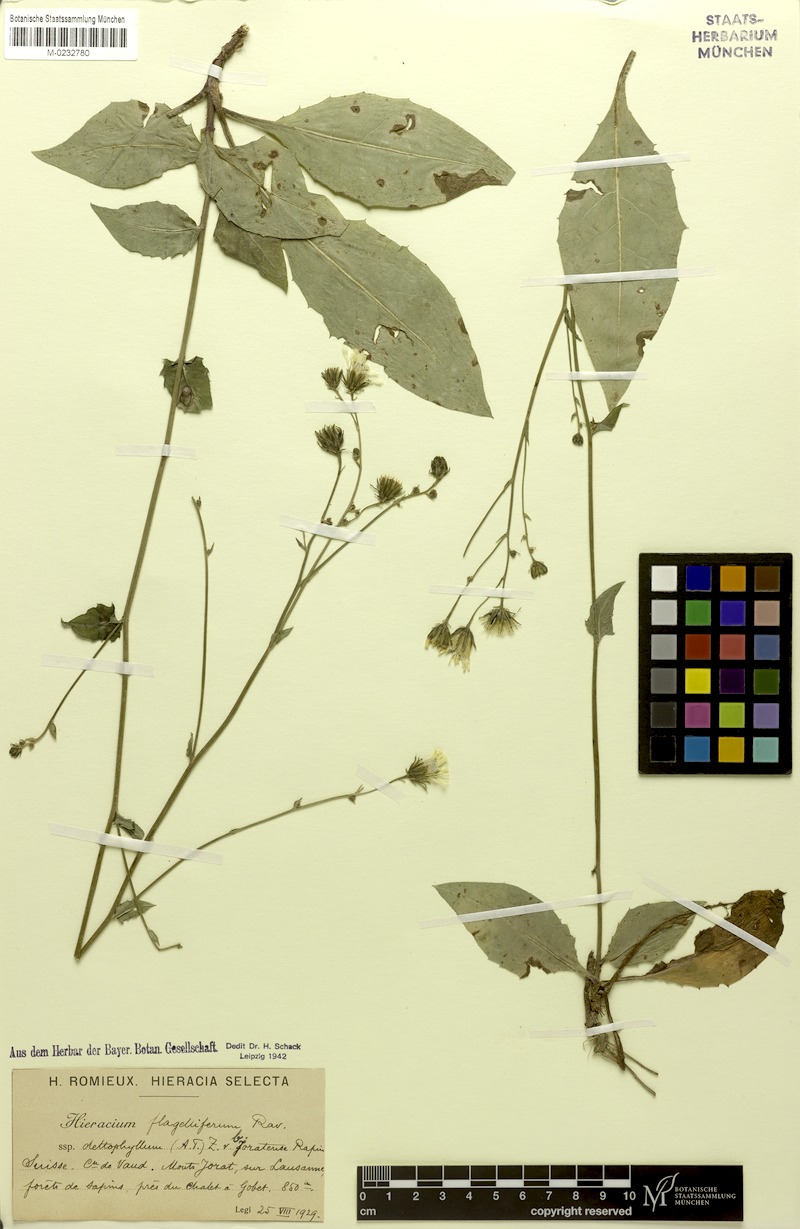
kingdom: Plantae
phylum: Tracheophyta
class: Magnoliopsida
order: Asterales
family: Asteraceae
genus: Hieracium
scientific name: Hieracium flagelliferum
